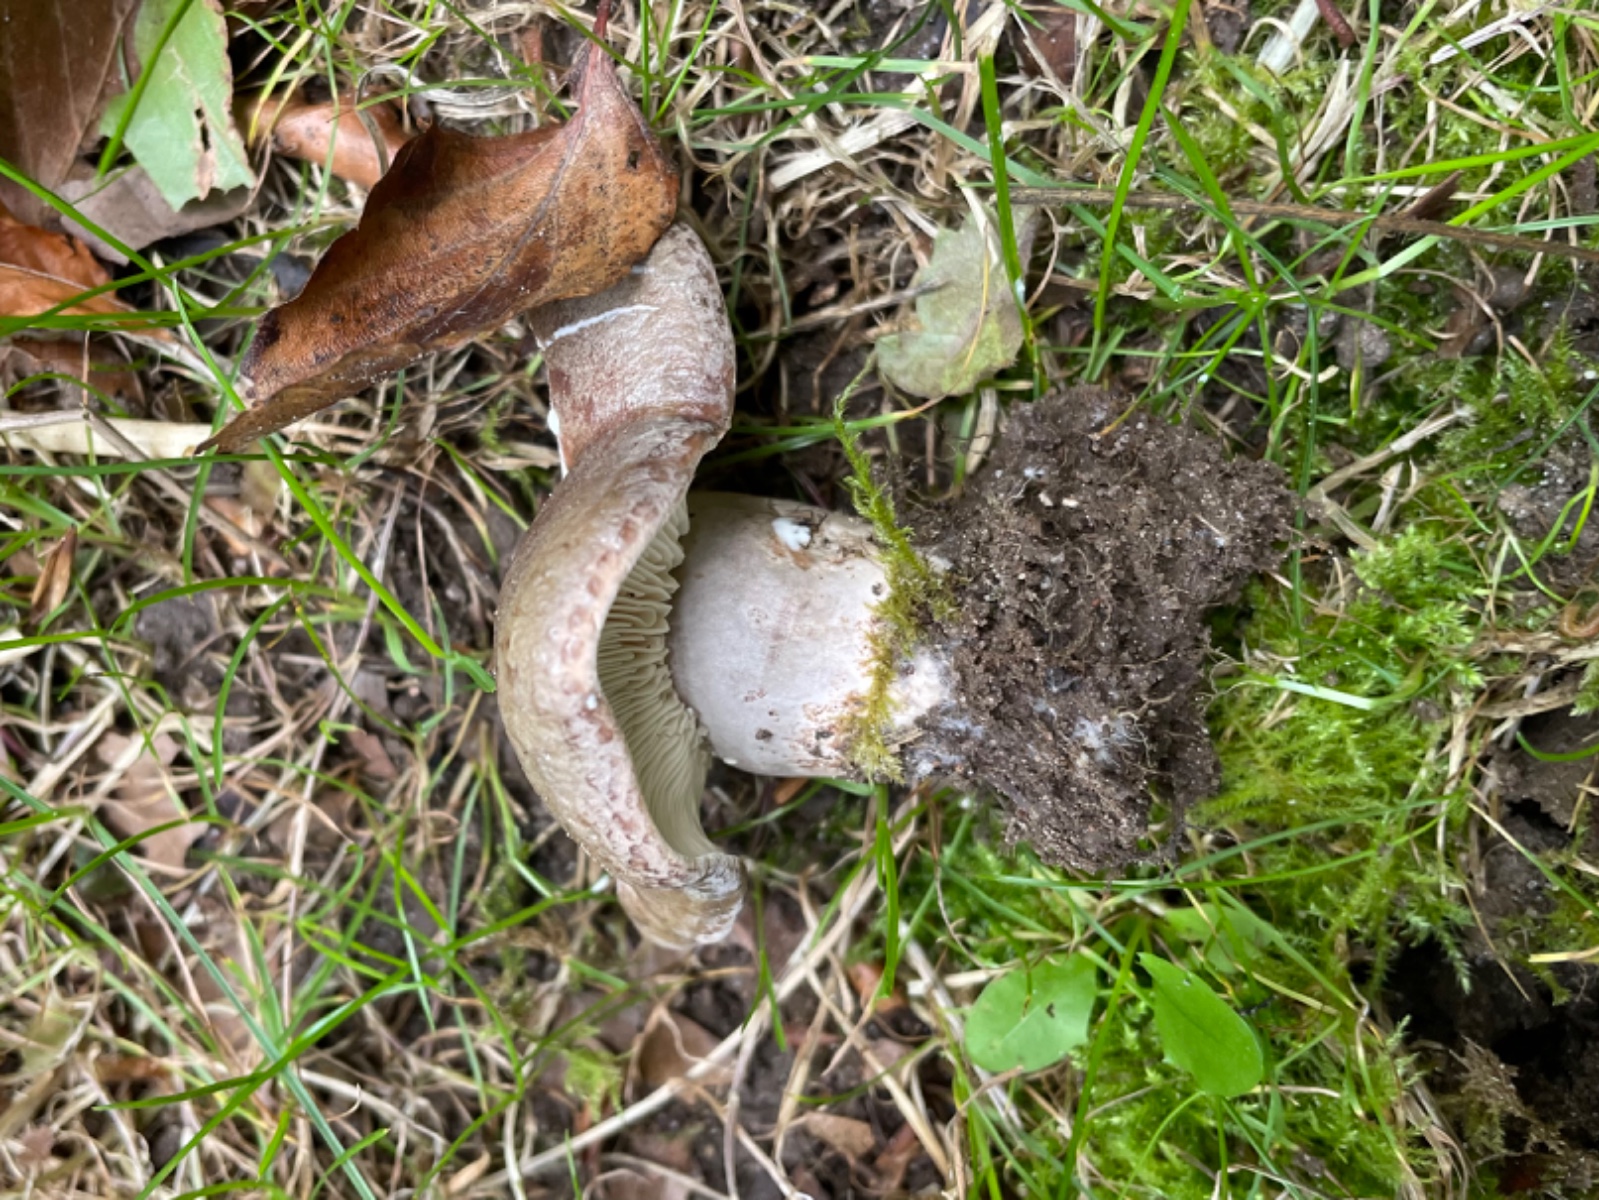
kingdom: Fungi
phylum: Basidiomycota
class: Agaricomycetes
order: Russulales
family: Russulaceae
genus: Lactarius
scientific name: Lactarius blennius
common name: dråbeplettet mælkehat
